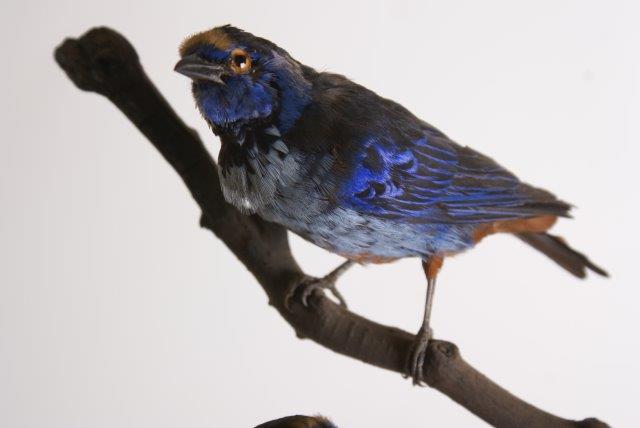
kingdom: Animalia
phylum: Chordata
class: Aves
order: Passeriformes
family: Thraupidae
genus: Tangara
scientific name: Tangara velia
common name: Opal-rumped tanager
